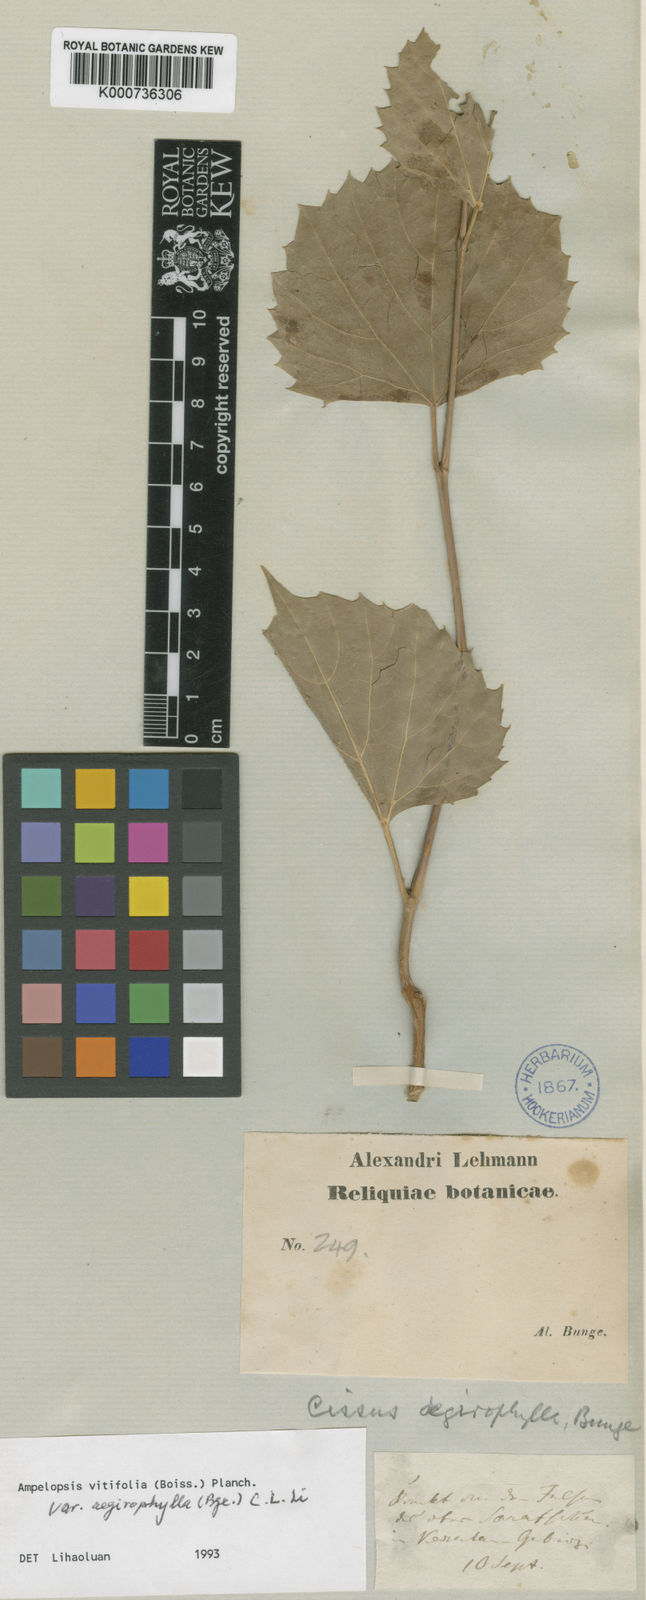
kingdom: Plantae
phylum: Tracheophyta
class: Magnoliopsida
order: Vitales
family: Vitaceae
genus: Ampelopsis
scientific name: Ampelopsis vitifolia
